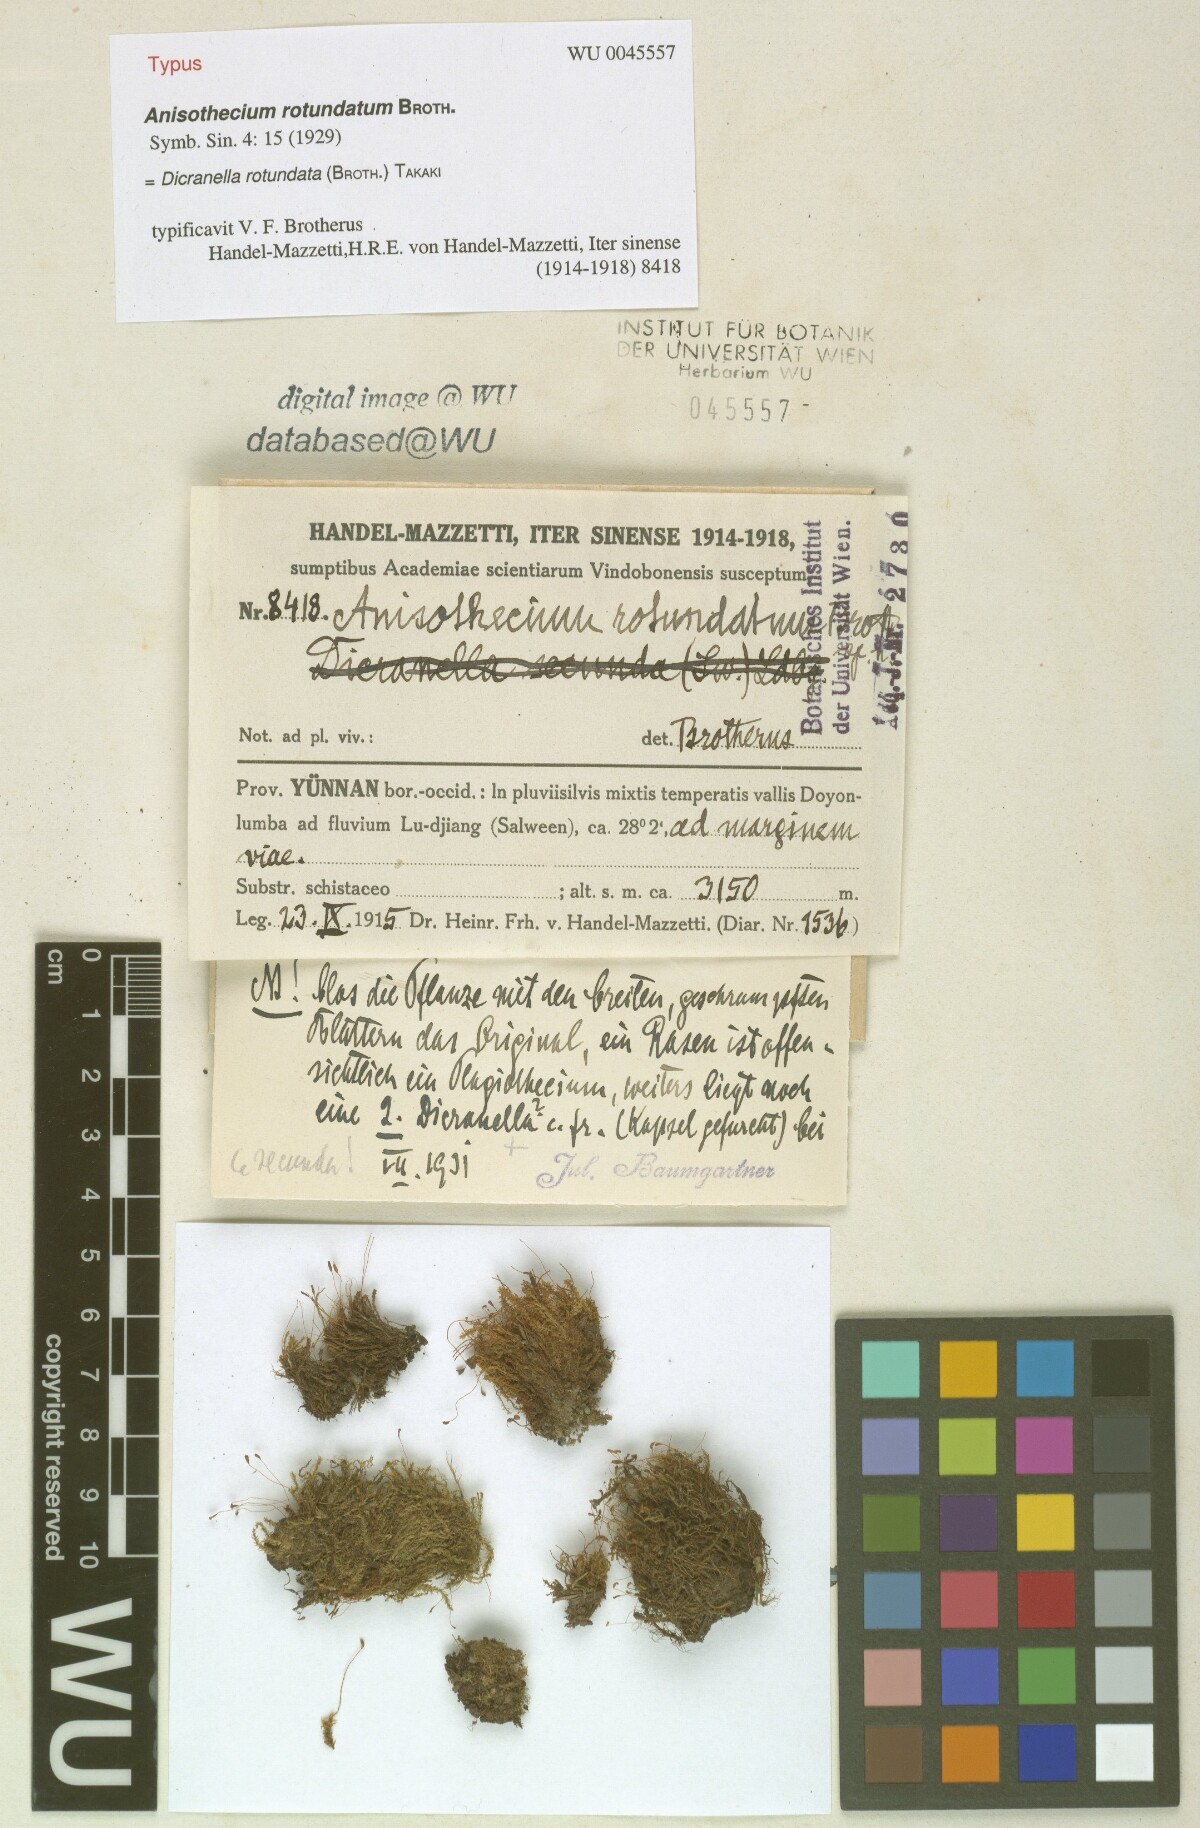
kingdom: Plantae
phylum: Bryophyta
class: Bryopsida
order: Dicranales
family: Aongstroemiaceae
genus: Diobelonella
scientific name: Diobelonella rotundata
